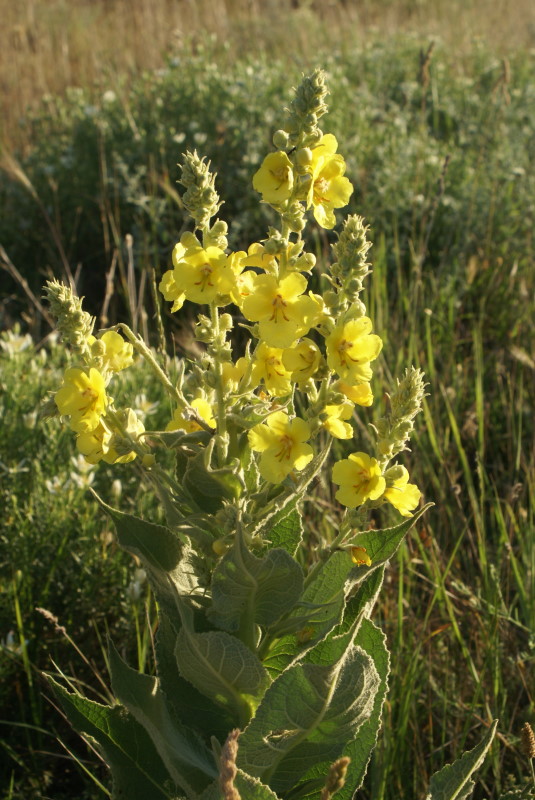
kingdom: Plantae
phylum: Tracheophyta
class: Magnoliopsida
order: Lamiales
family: Scrophulariaceae
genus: Verbascum
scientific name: Verbascum
